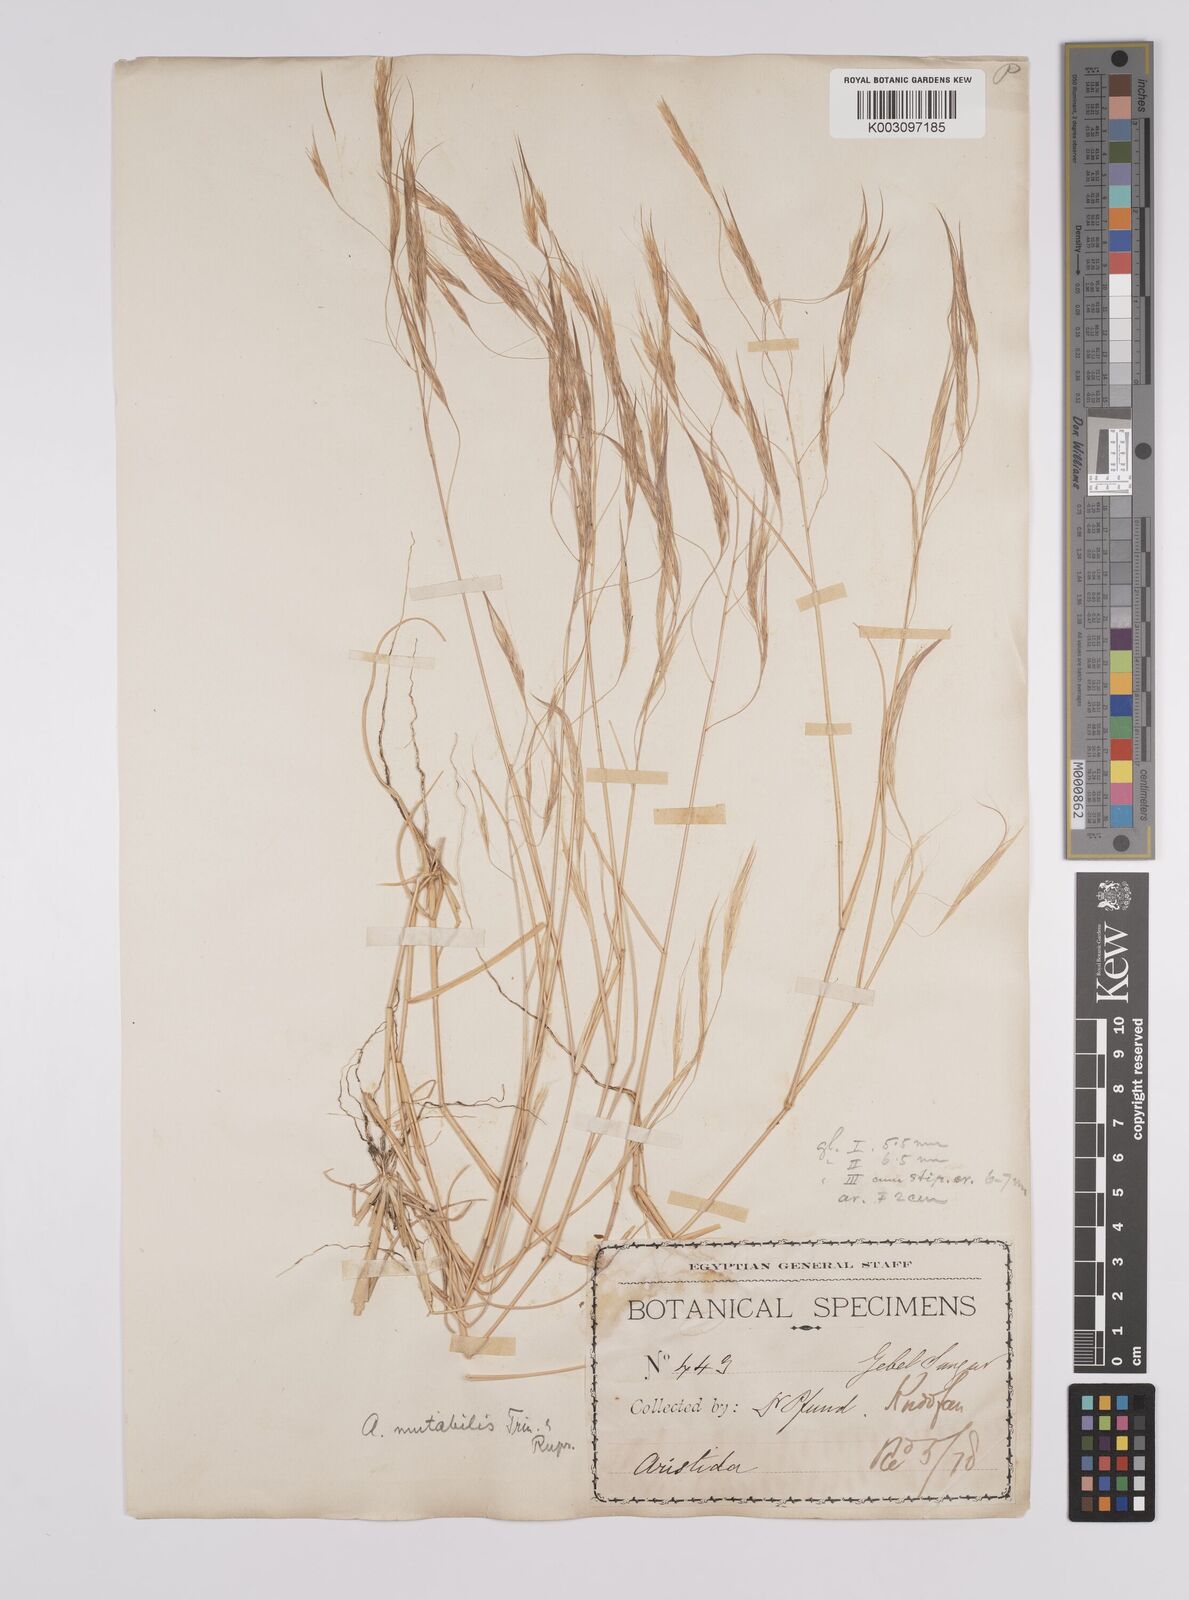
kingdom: Plantae
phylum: Tracheophyta
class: Liliopsida
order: Poales
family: Poaceae
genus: Aristida
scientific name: Aristida mutabilis
